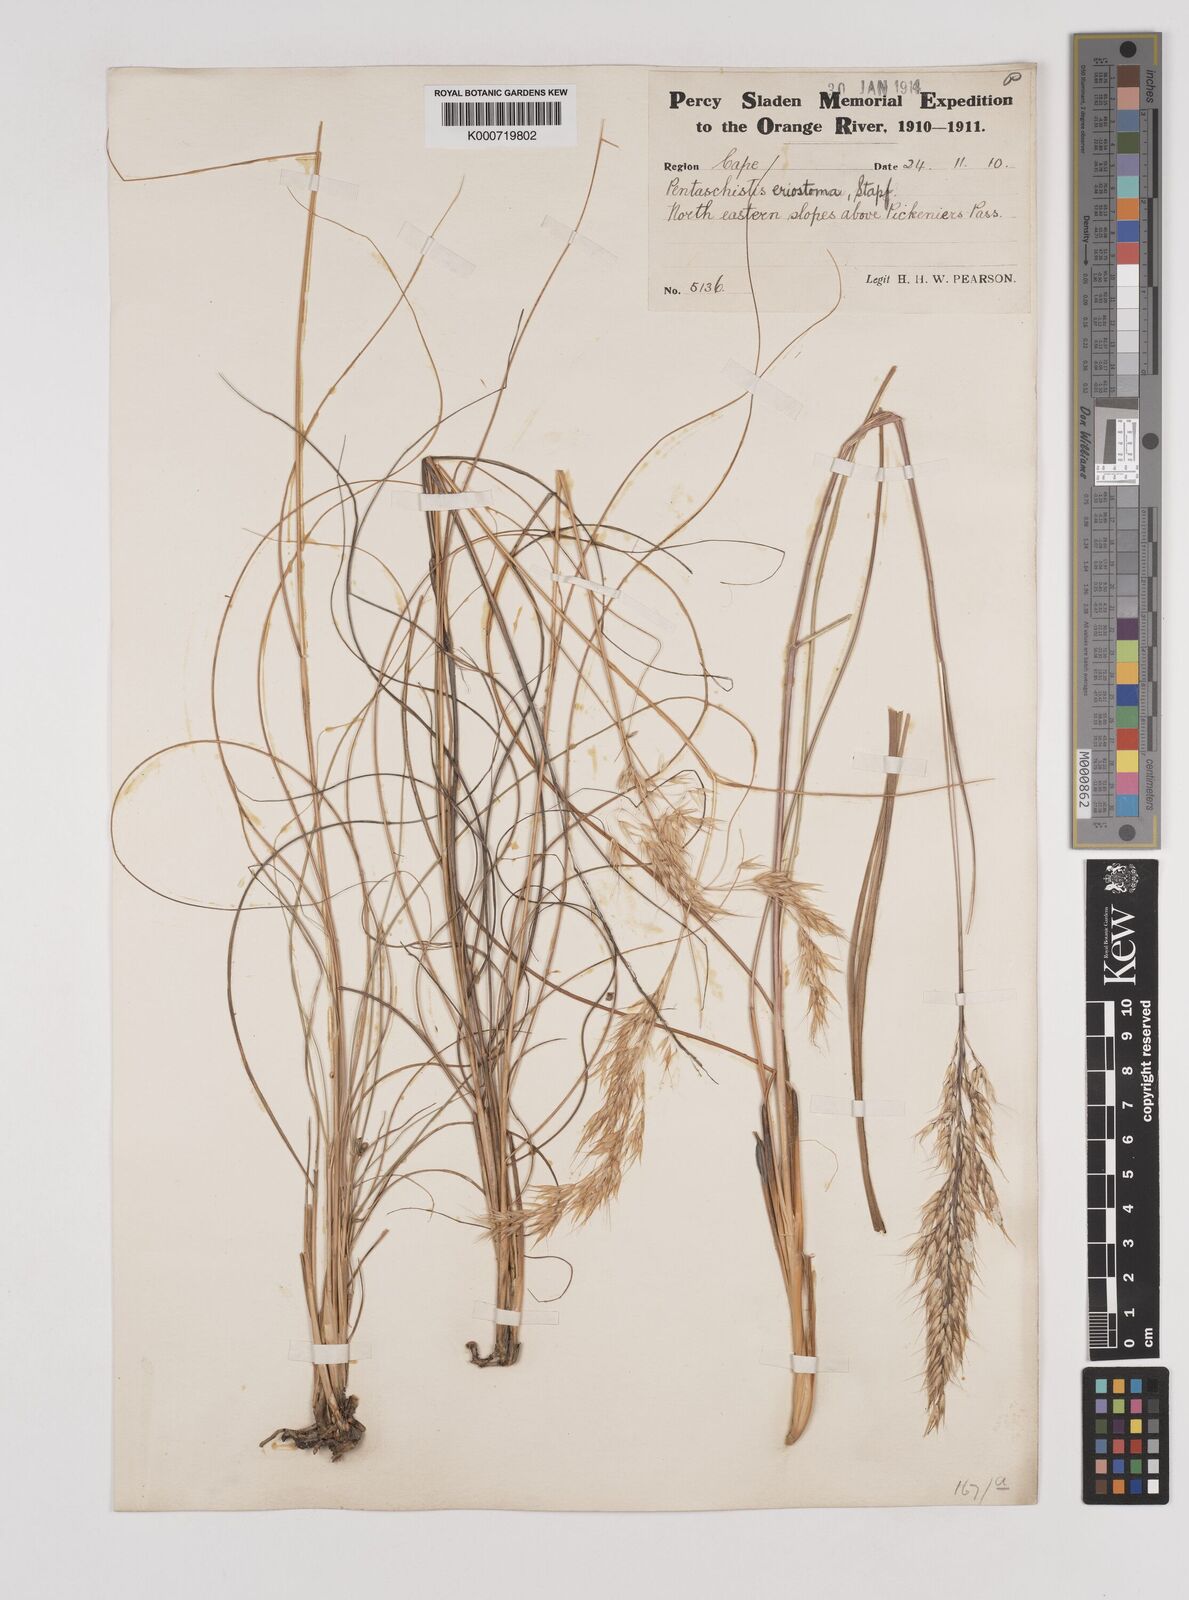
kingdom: Plantae
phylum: Tracheophyta
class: Liliopsida
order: Poales
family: Poaceae
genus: Pentameris
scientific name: Pentameris eriostoma
